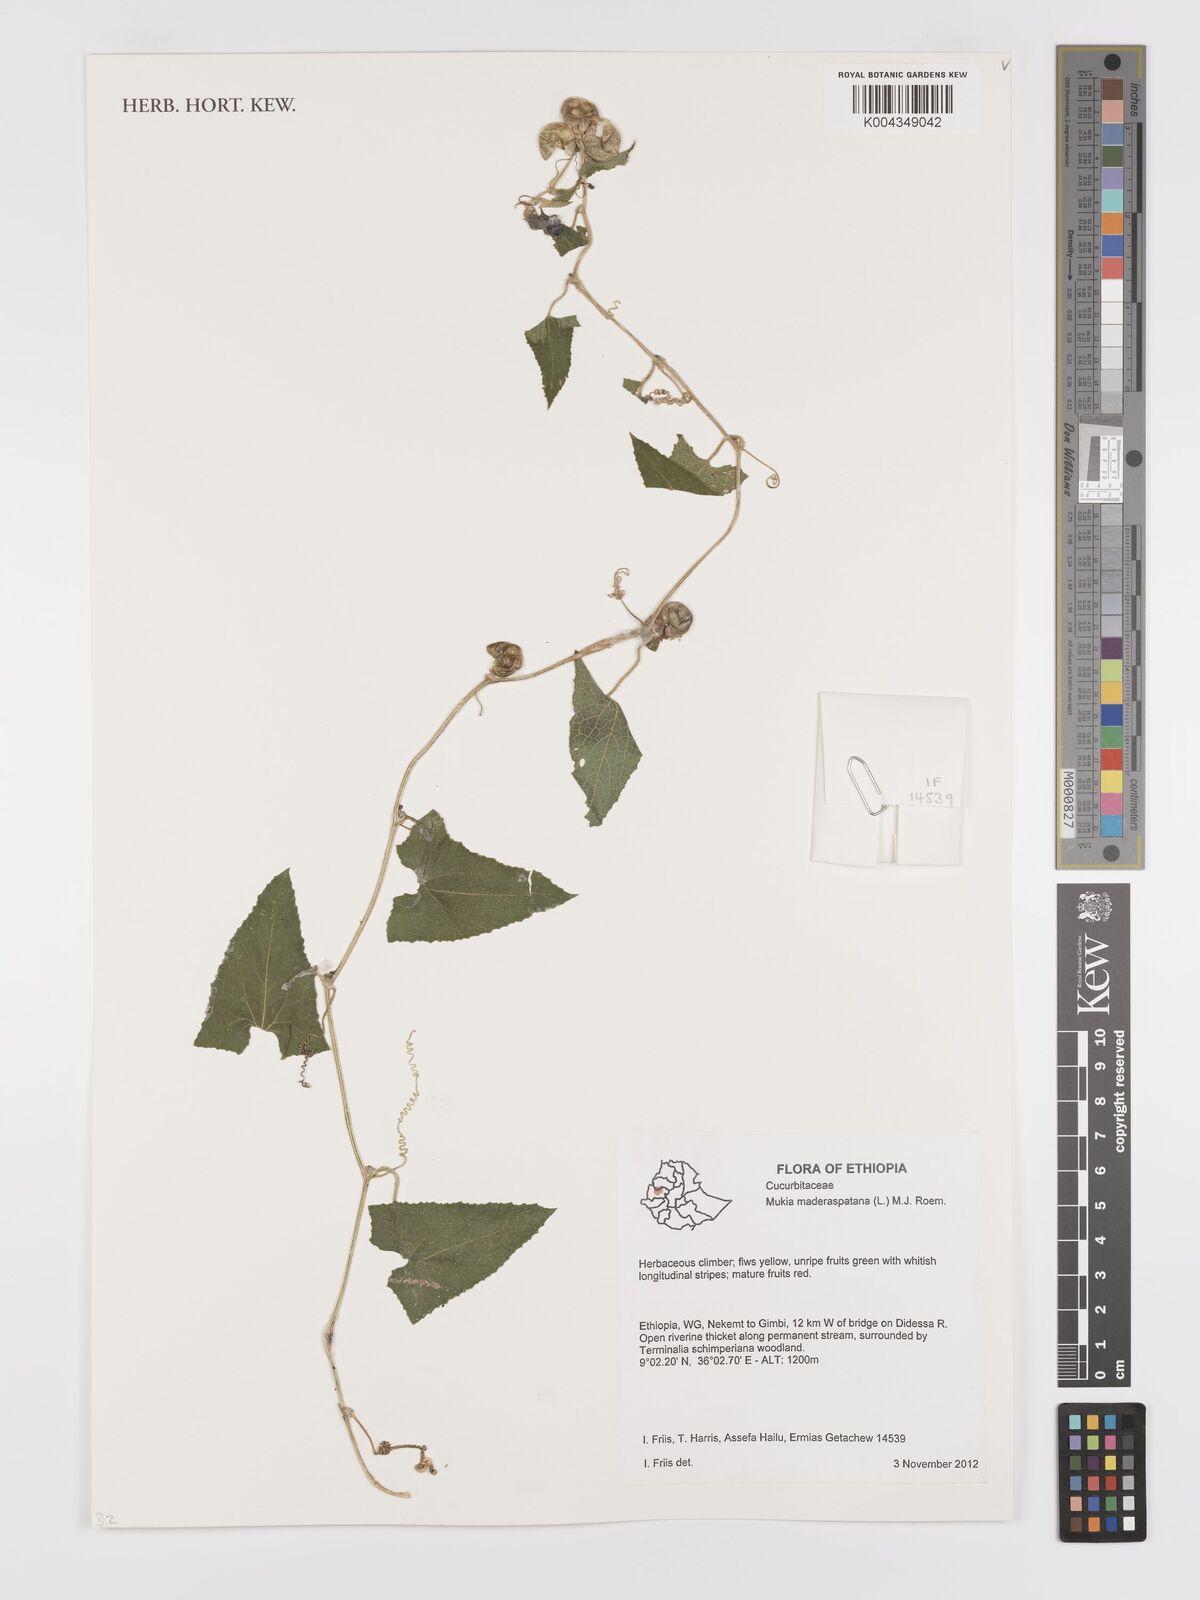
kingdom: Plantae
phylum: Tracheophyta
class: Magnoliopsida
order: Cucurbitales
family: Cucurbitaceae
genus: Cucumis
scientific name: Cucumis maderaspatanus
